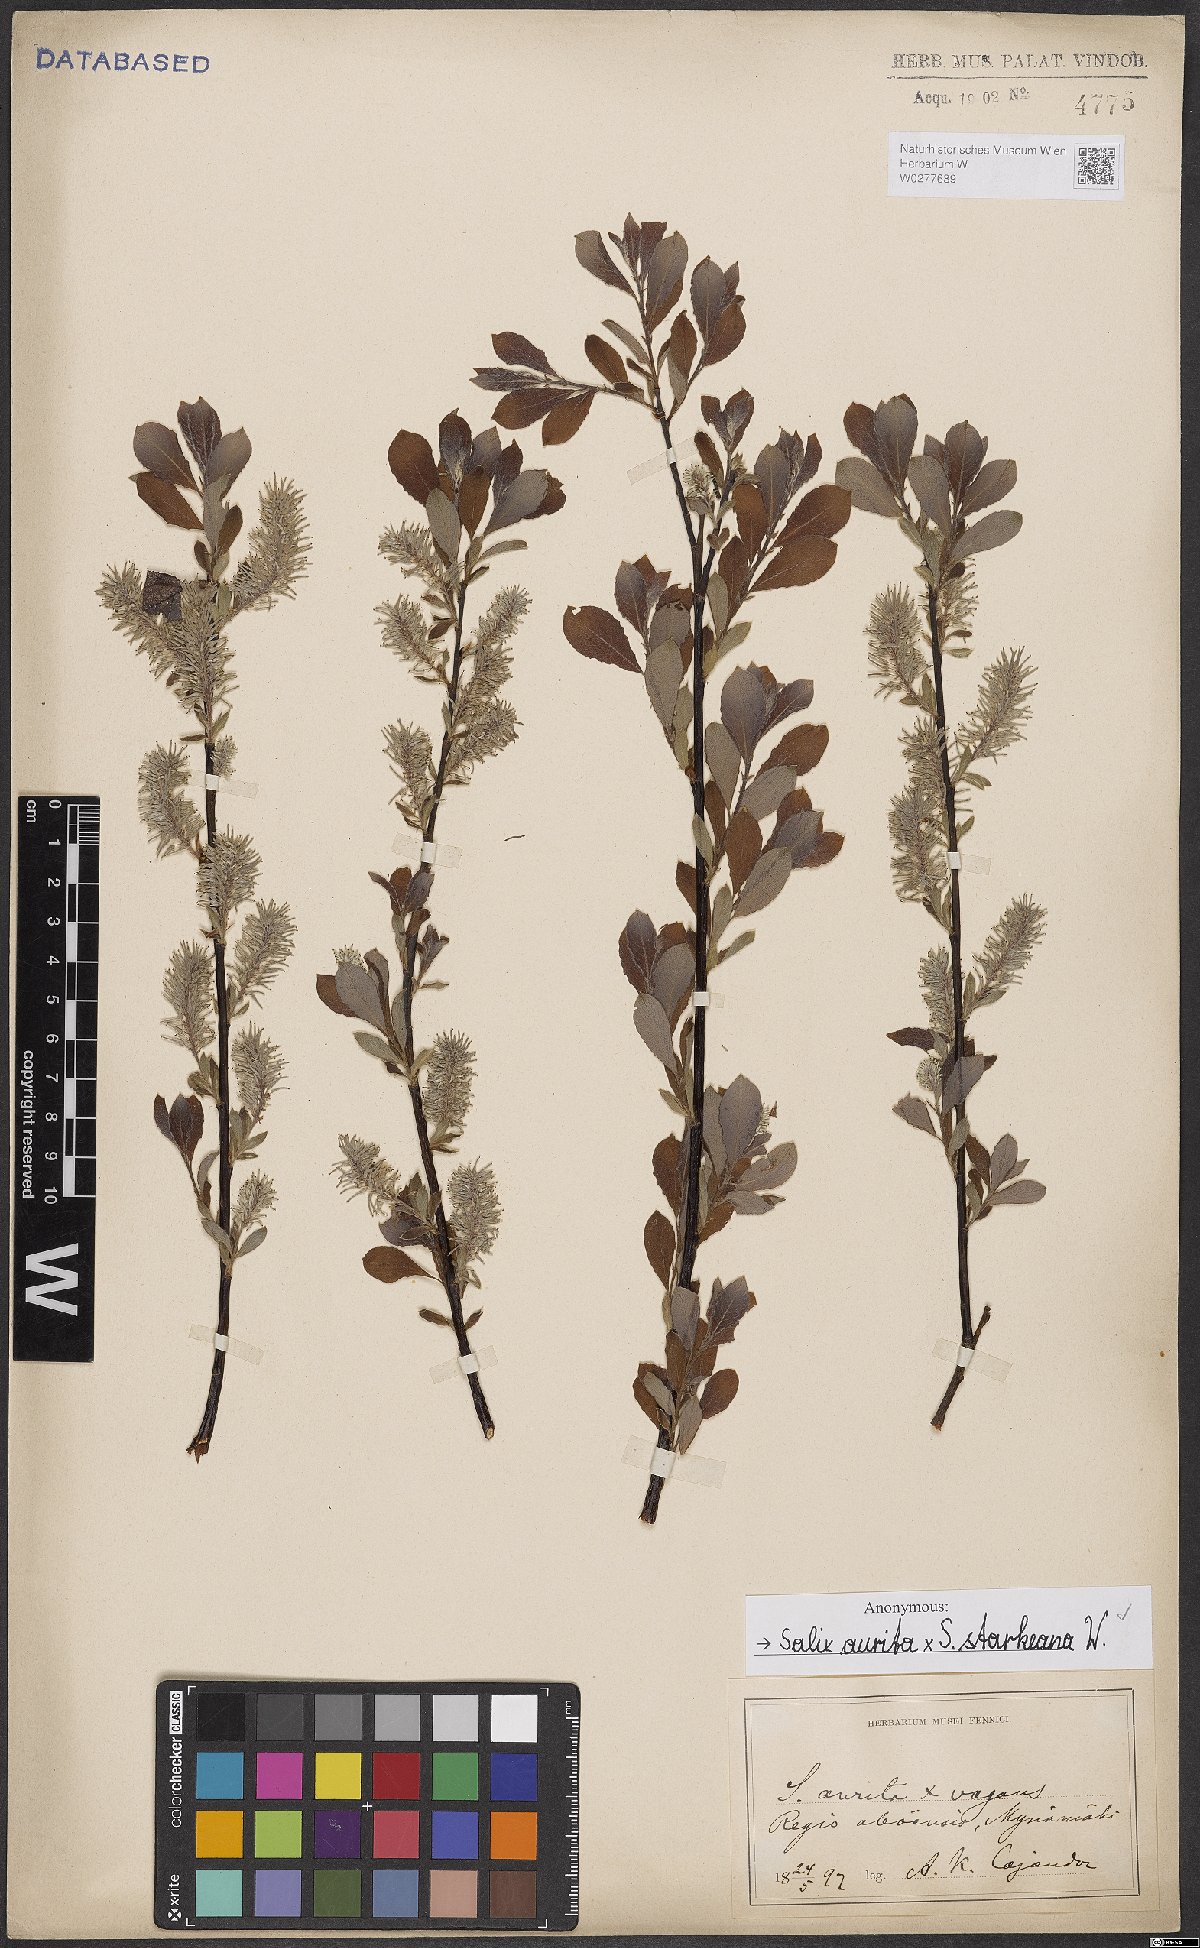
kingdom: Plantae
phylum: Tracheophyta
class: Magnoliopsida
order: Malpighiales
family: Salicaceae
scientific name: Salicaceae
